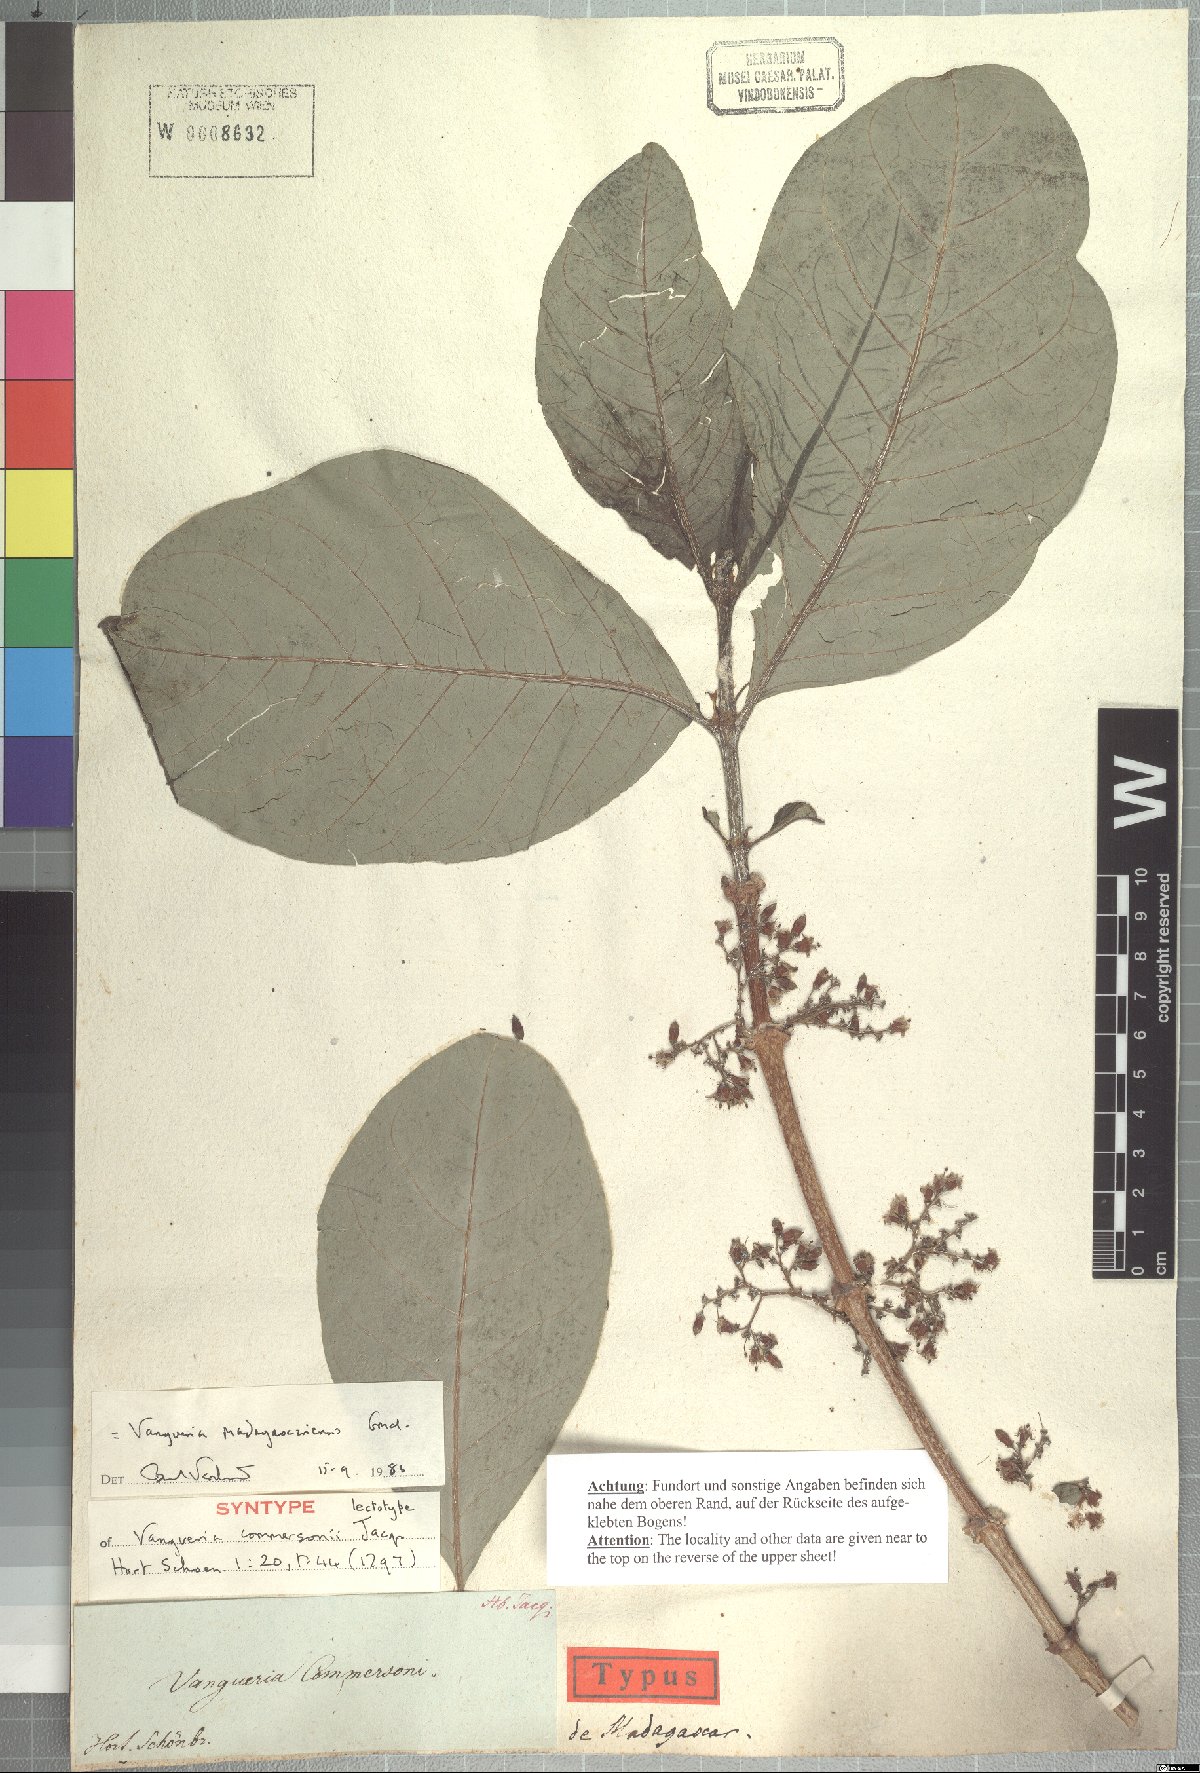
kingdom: Plantae
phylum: Tracheophyta
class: Magnoliopsida
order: Gentianales
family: Rubiaceae
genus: Vangueria
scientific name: Vangueria madagascariensis
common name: Smooth wild-medlar
